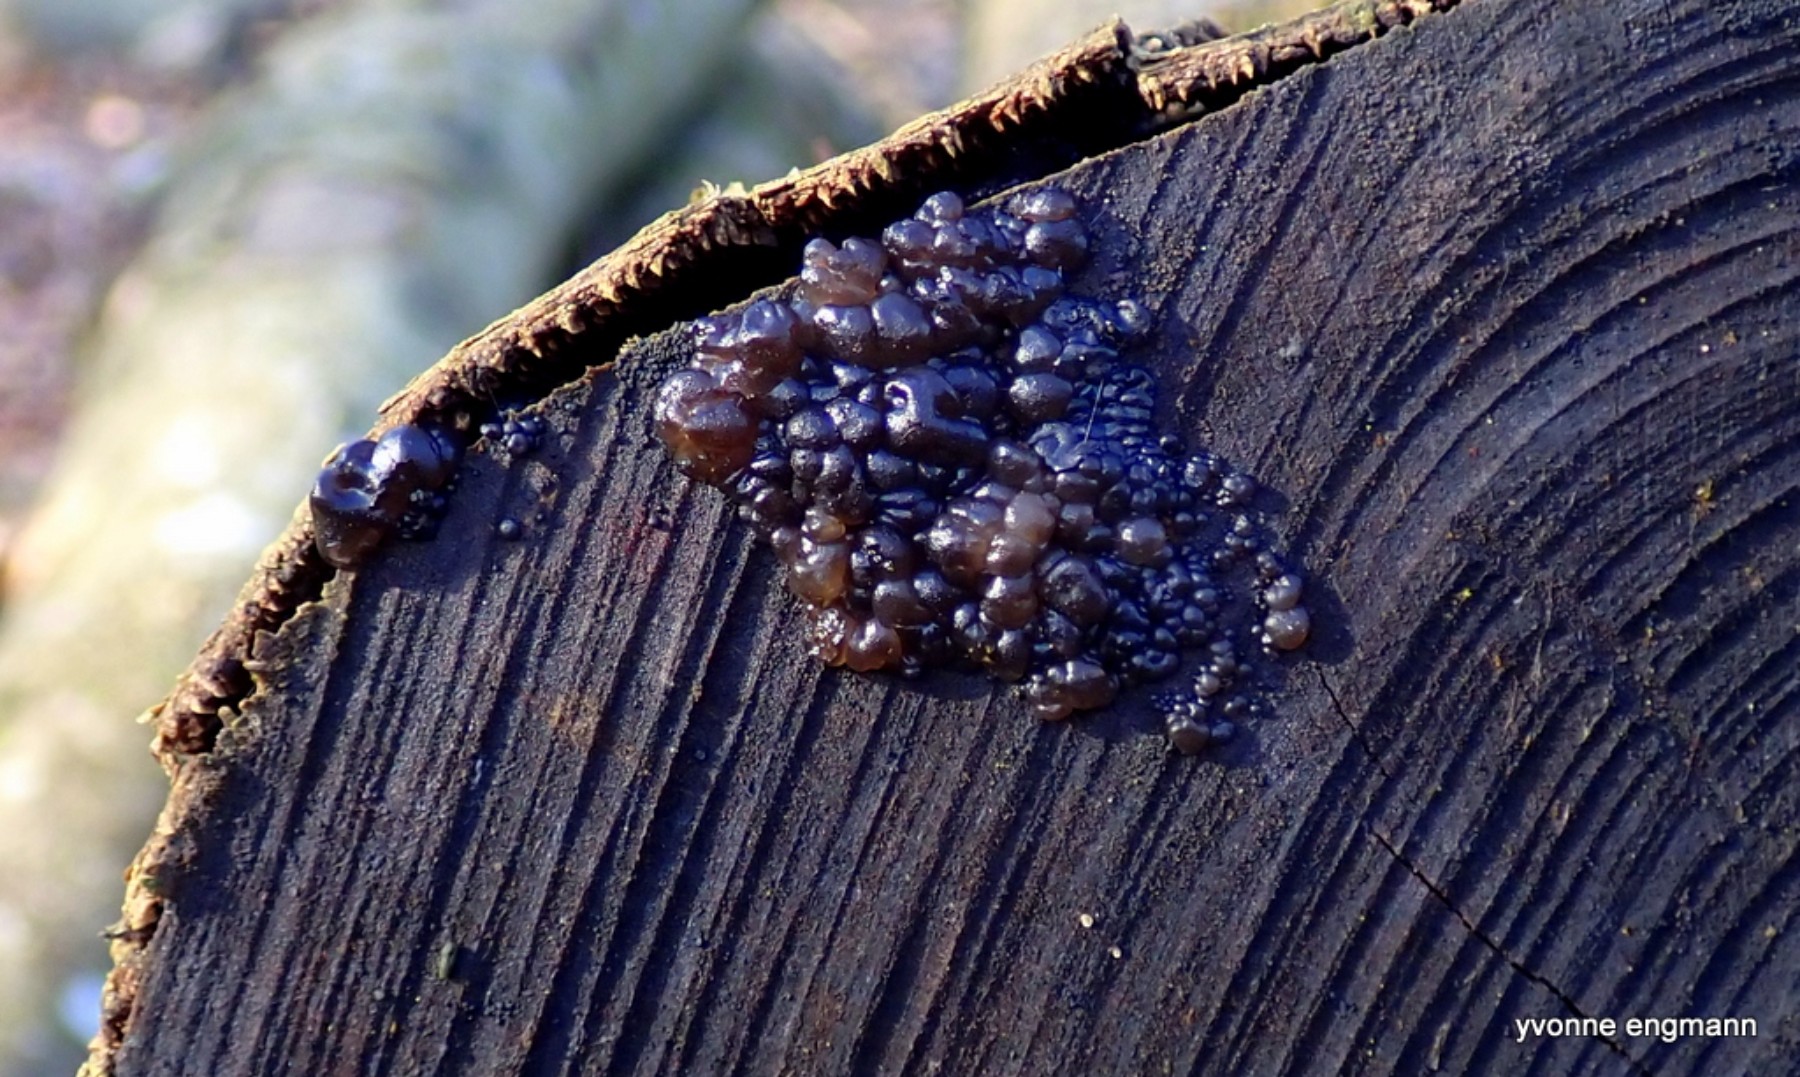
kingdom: Fungi
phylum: Basidiomycota
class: Agaricomycetes
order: Auriculariales
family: Auriculariaceae
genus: Exidia
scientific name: Exidia nigricans
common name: almindelig bævretop
